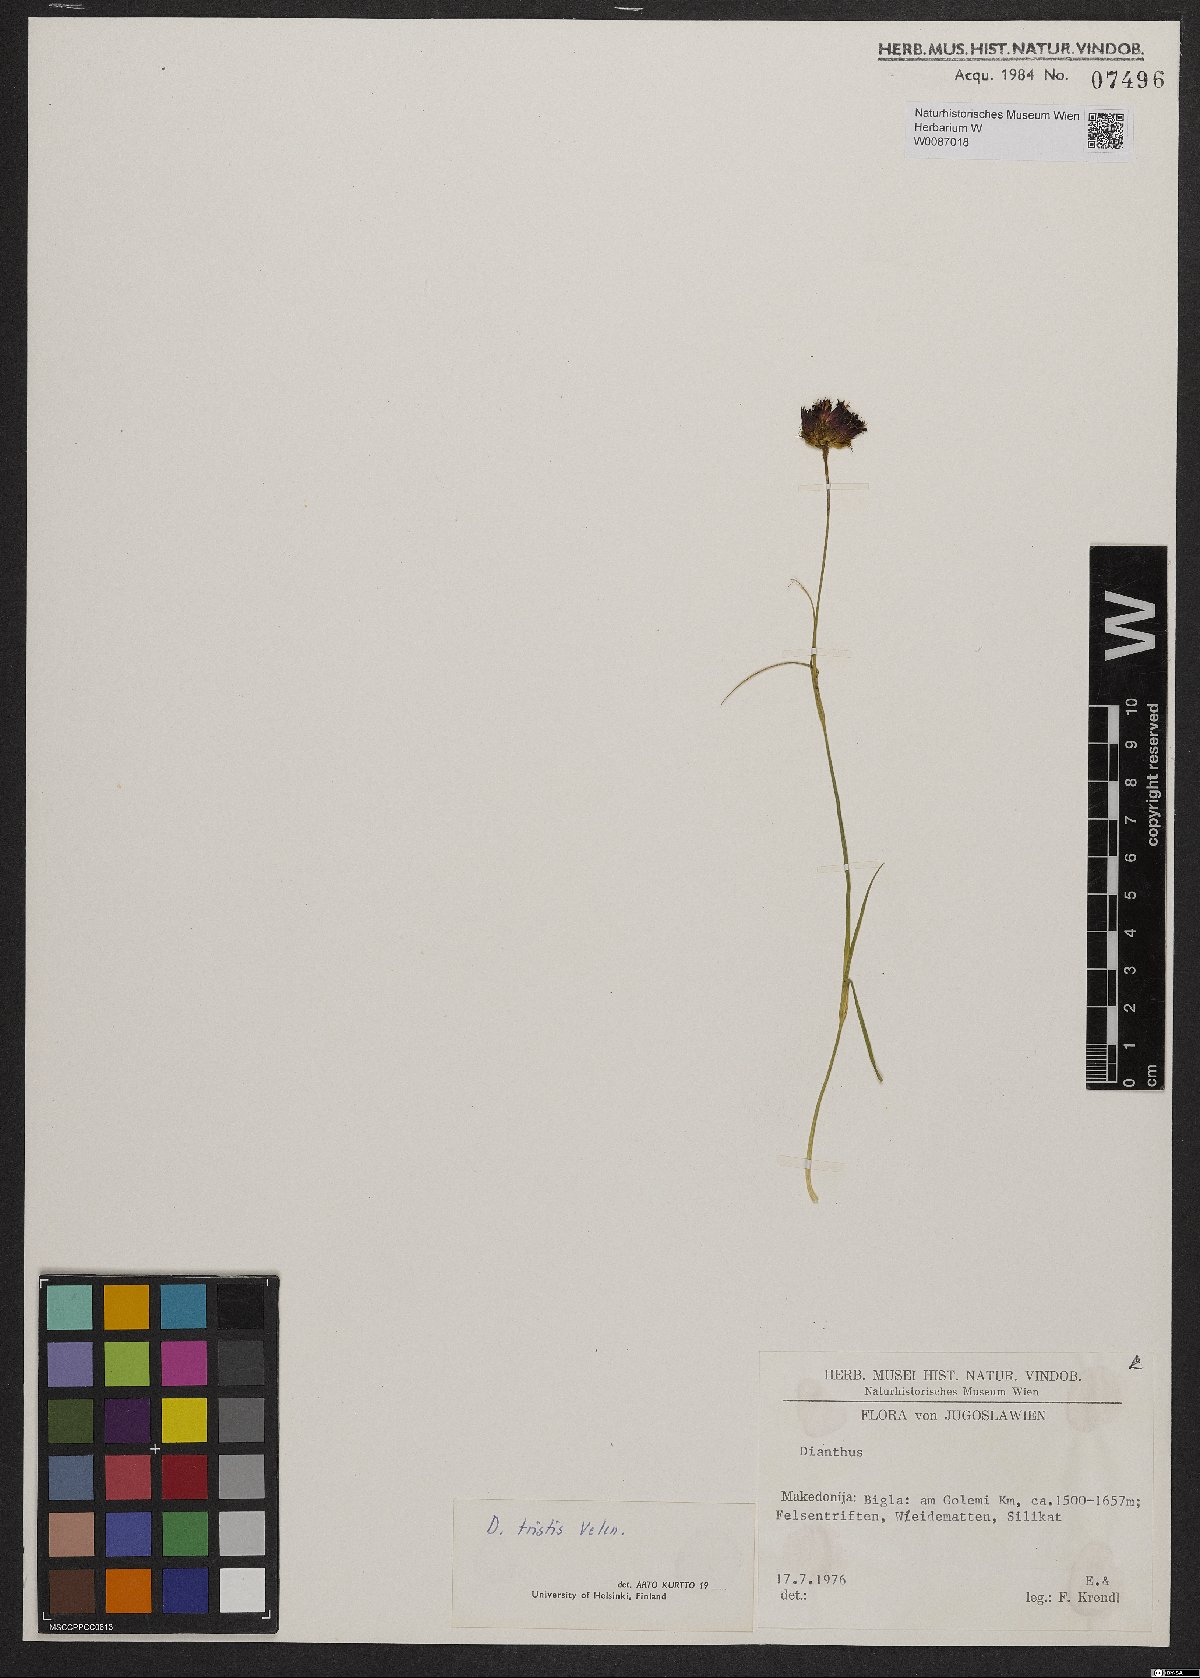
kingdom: Plantae
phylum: Tracheophyta
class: Magnoliopsida
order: Caryophyllales
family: Caryophyllaceae
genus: Dianthus
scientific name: Dianthus pancicii
